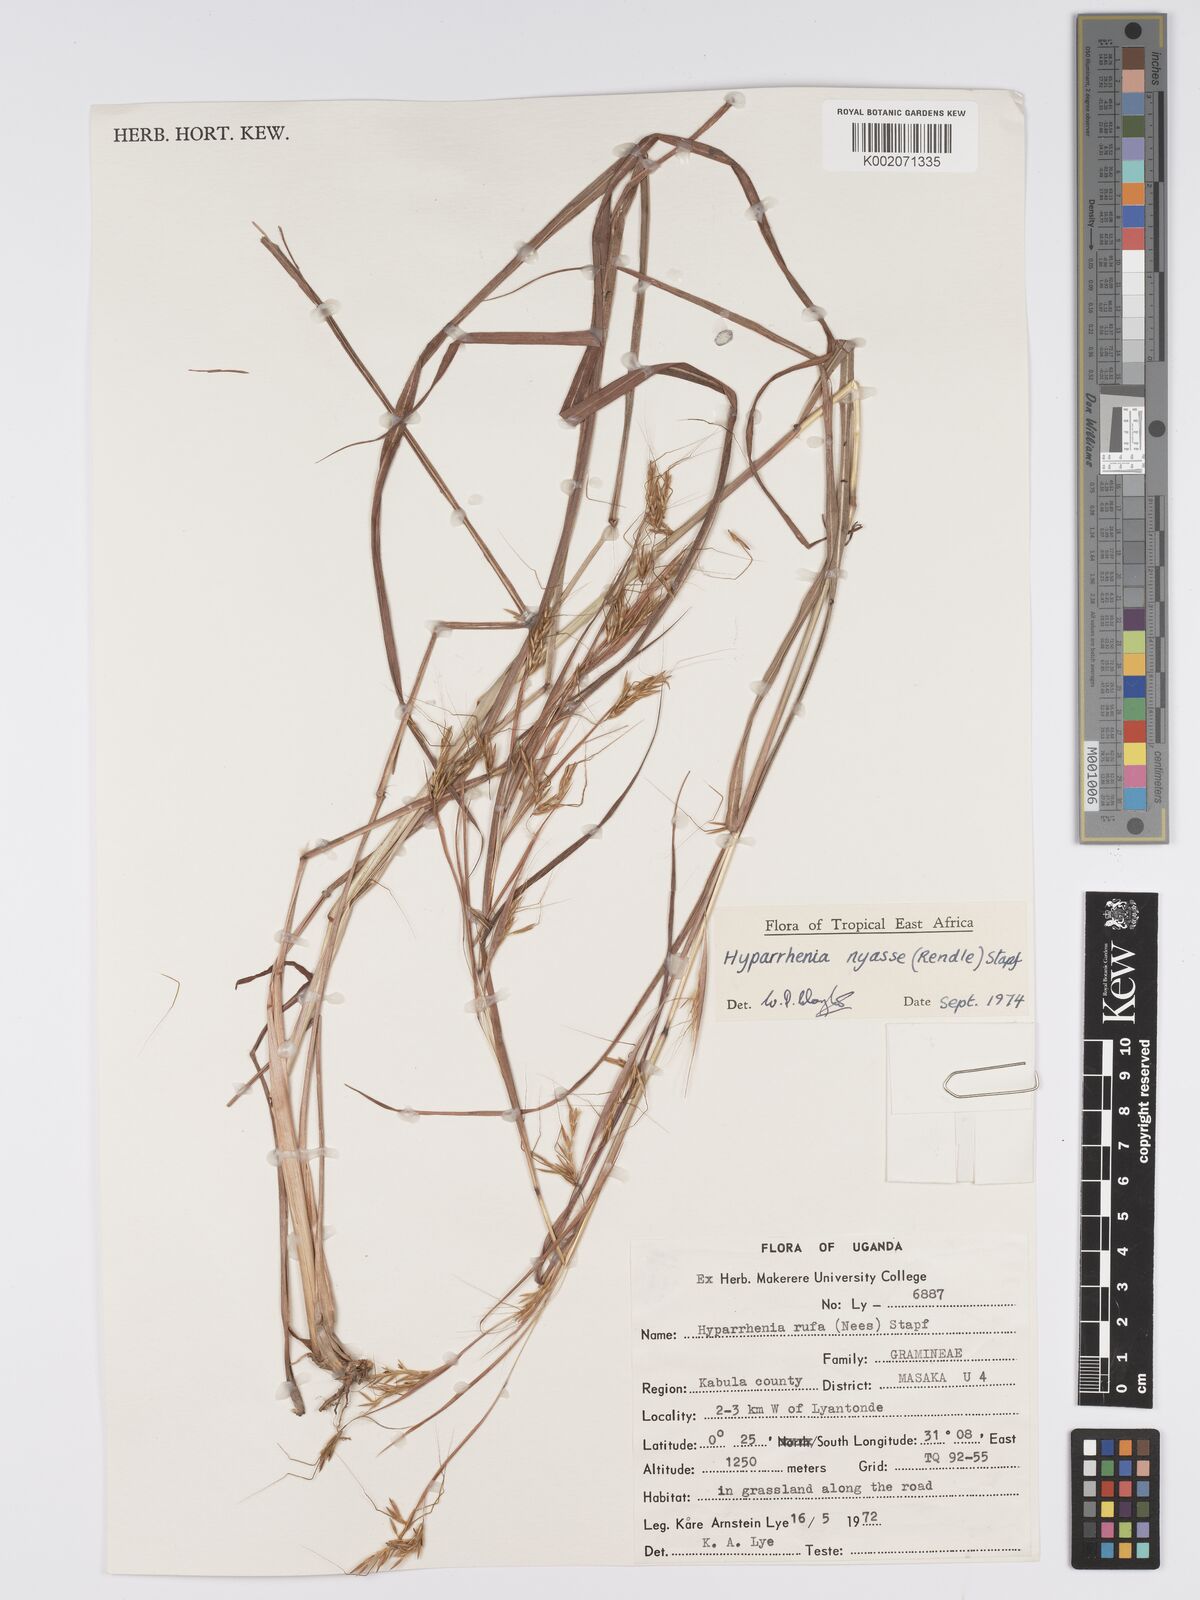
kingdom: Plantae
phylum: Tracheophyta
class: Liliopsida
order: Poales
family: Poaceae
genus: Hyparrhenia
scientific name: Hyparrhenia nyassae
